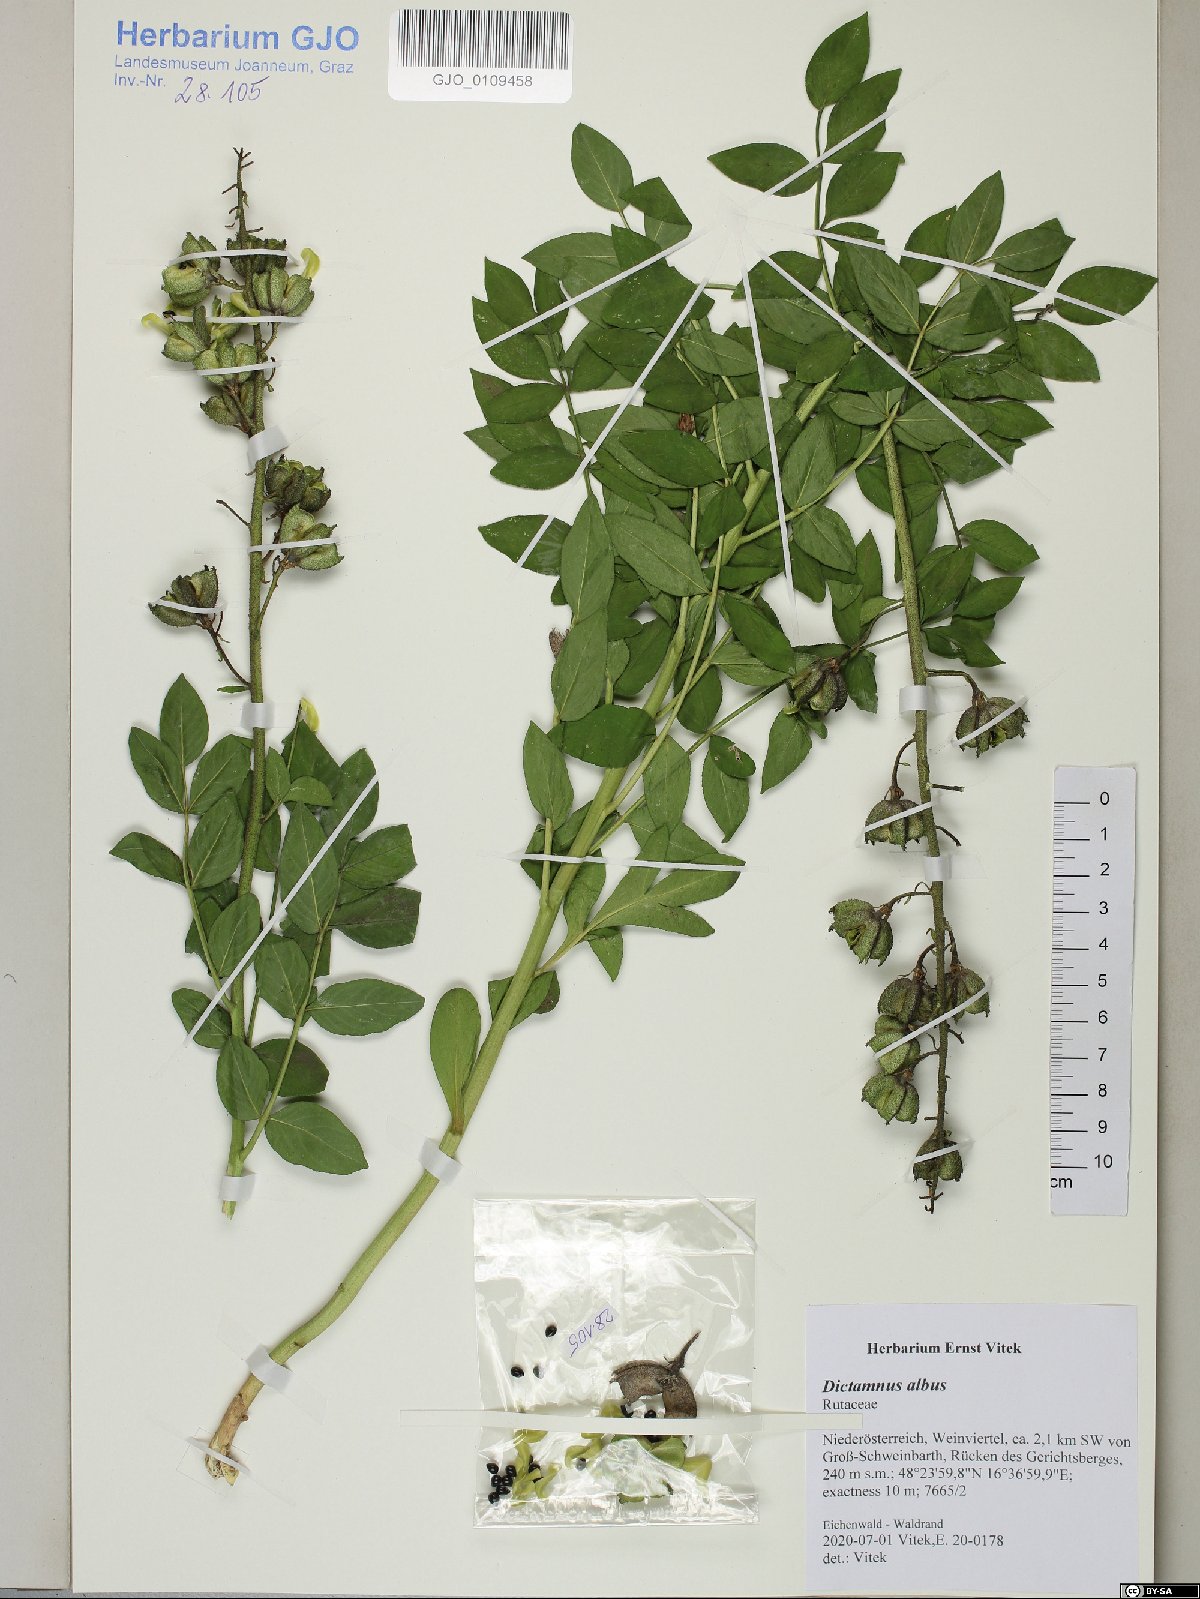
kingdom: Plantae
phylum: Tracheophyta
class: Magnoliopsida
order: Sapindales
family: Rutaceae
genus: Dictamnus
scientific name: Dictamnus albus
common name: Gasplant
